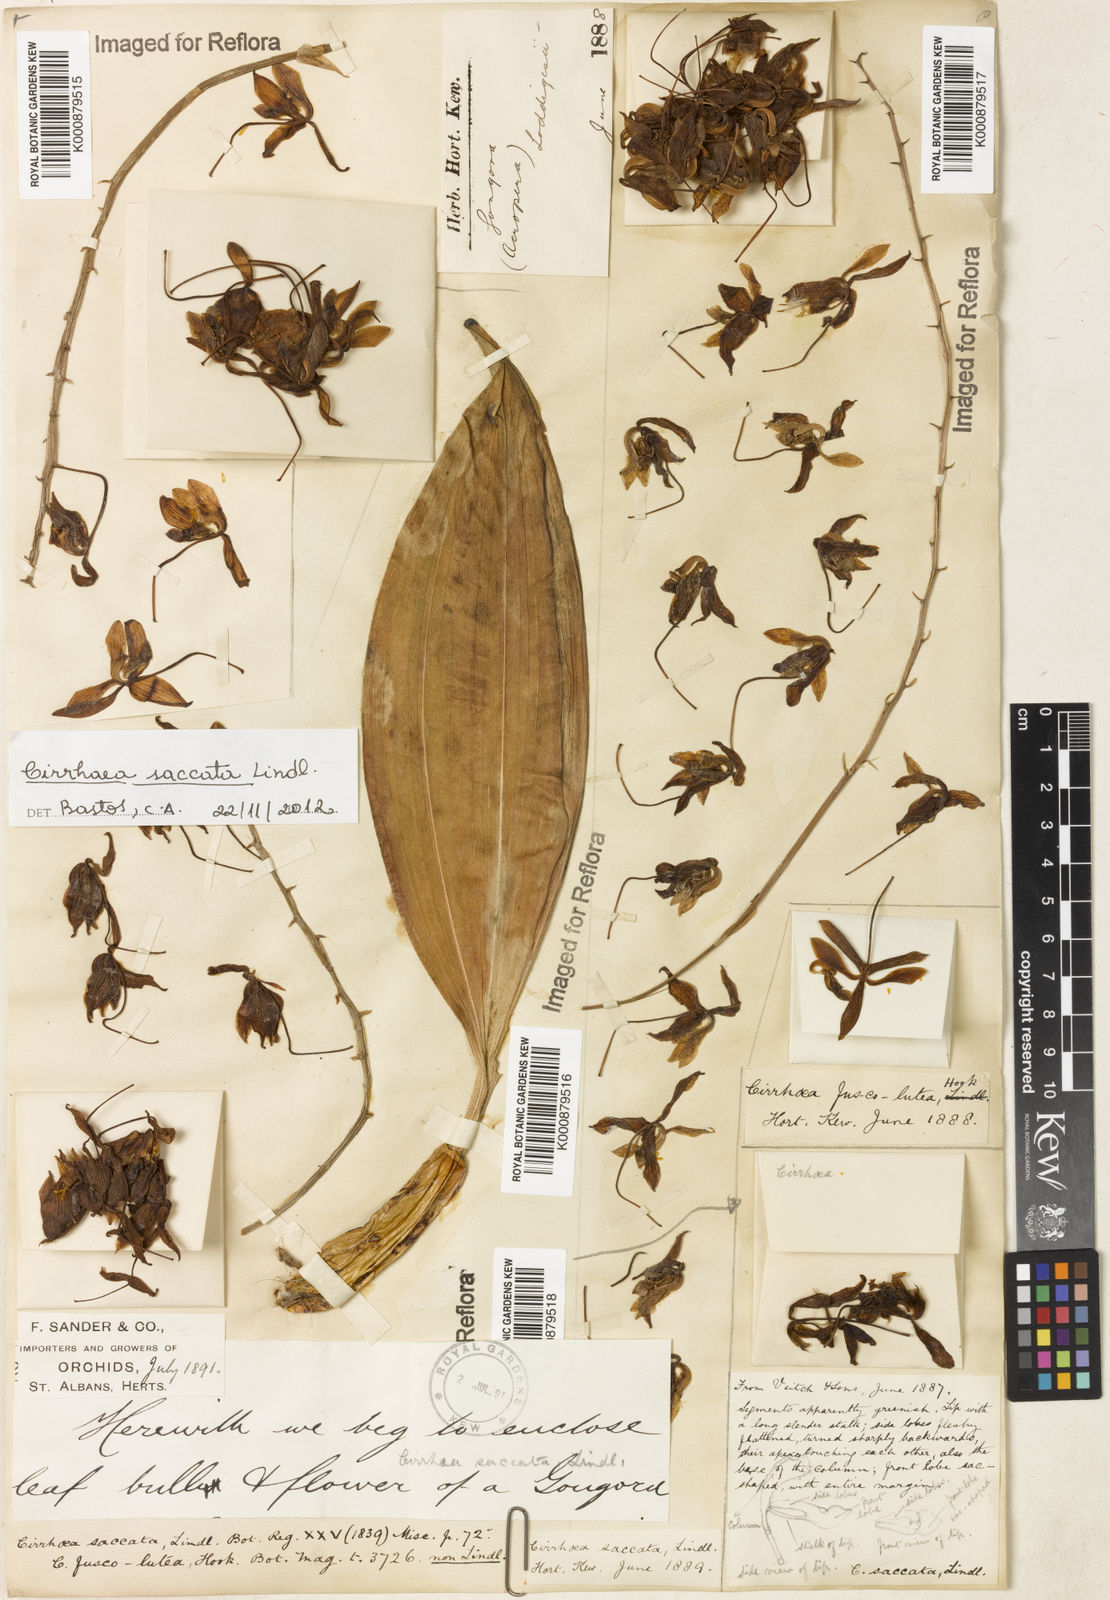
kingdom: Plantae
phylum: Tracheophyta
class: Liliopsida
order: Asparagales
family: Orchidaceae
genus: Cirrhaea
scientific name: Cirrhaea fuscolutea
